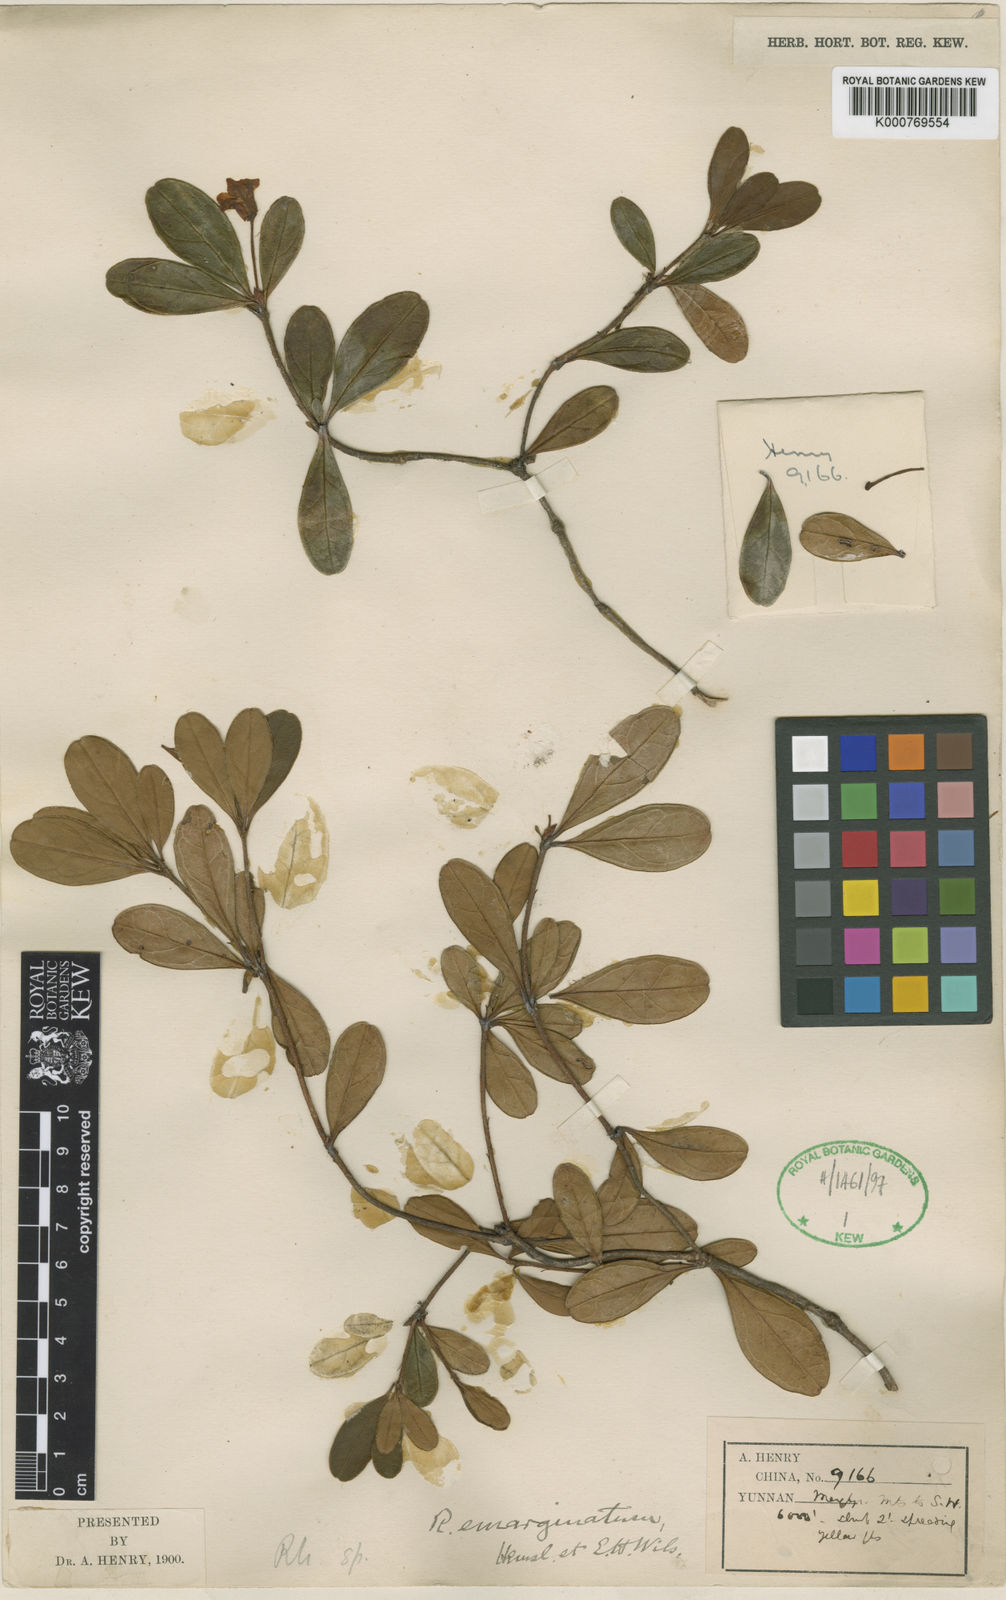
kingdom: Plantae
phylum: Tracheophyta
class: Magnoliopsida
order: Ericales
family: Ericaceae
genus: Rhododendron
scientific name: Rhododendron emarginatum
